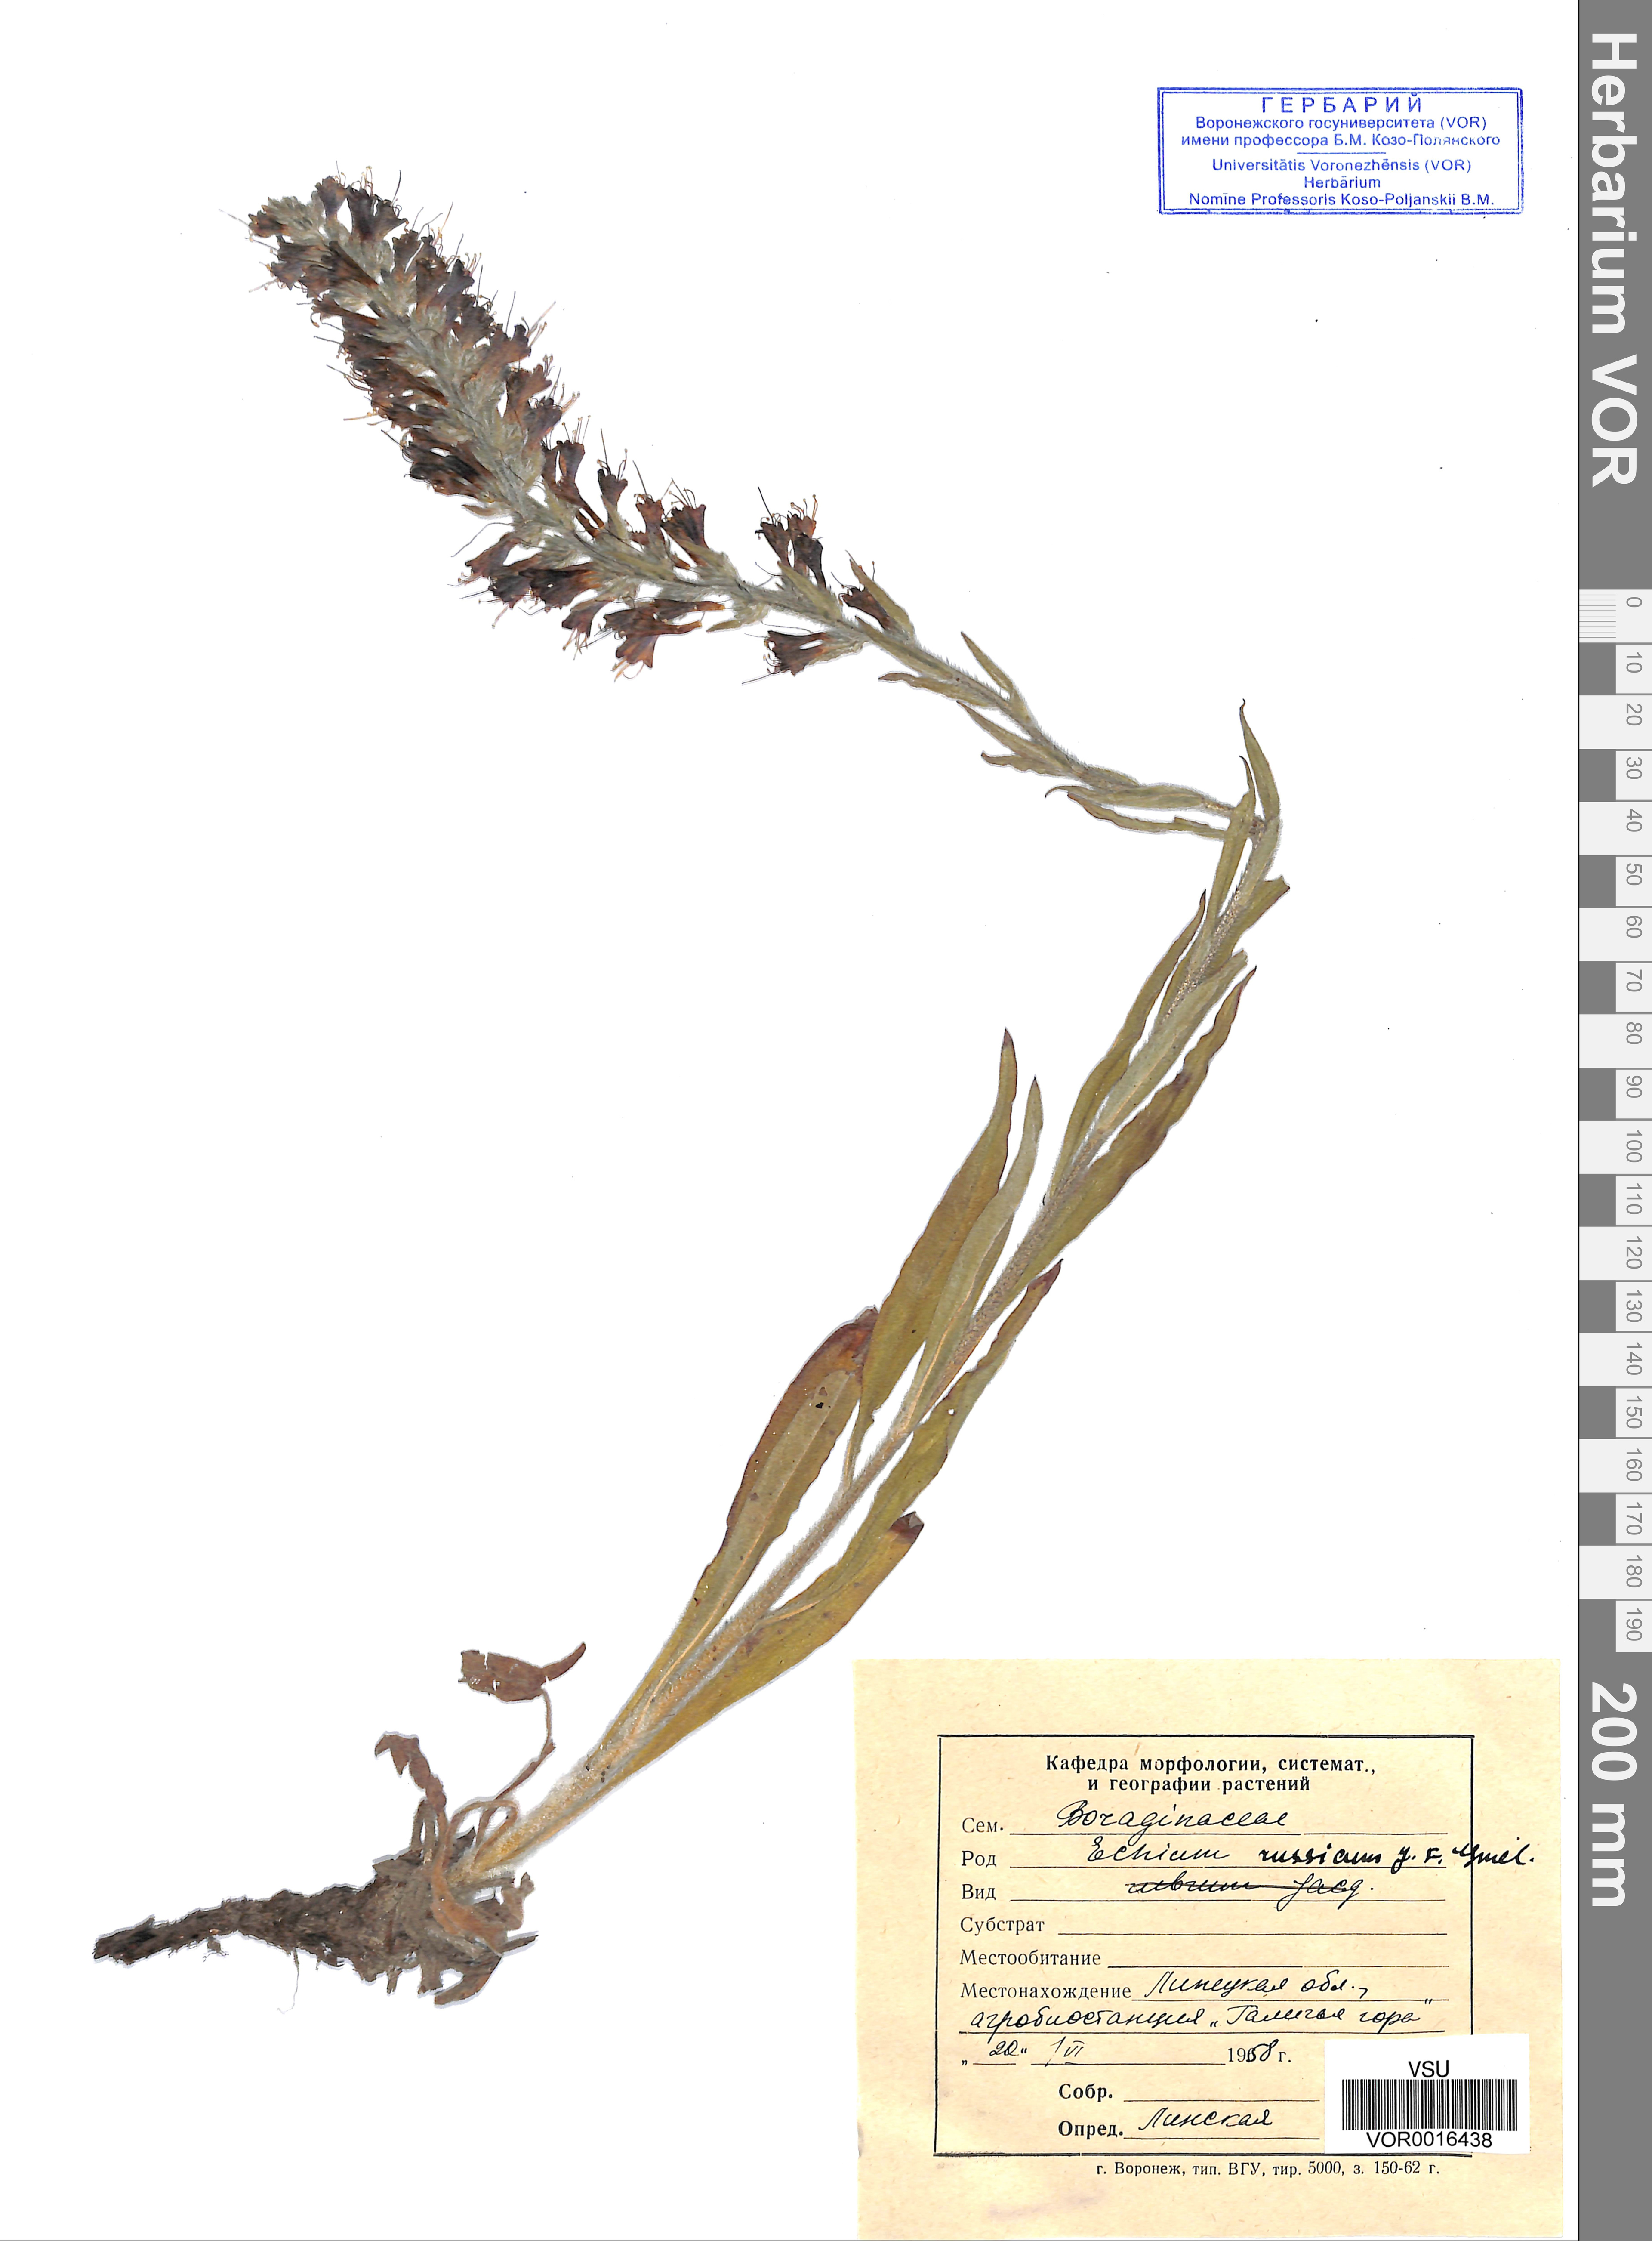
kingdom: Plantae
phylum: Tracheophyta
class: Magnoliopsida
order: Boraginales
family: Boraginaceae
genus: Pontechium
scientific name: Pontechium maculatum
